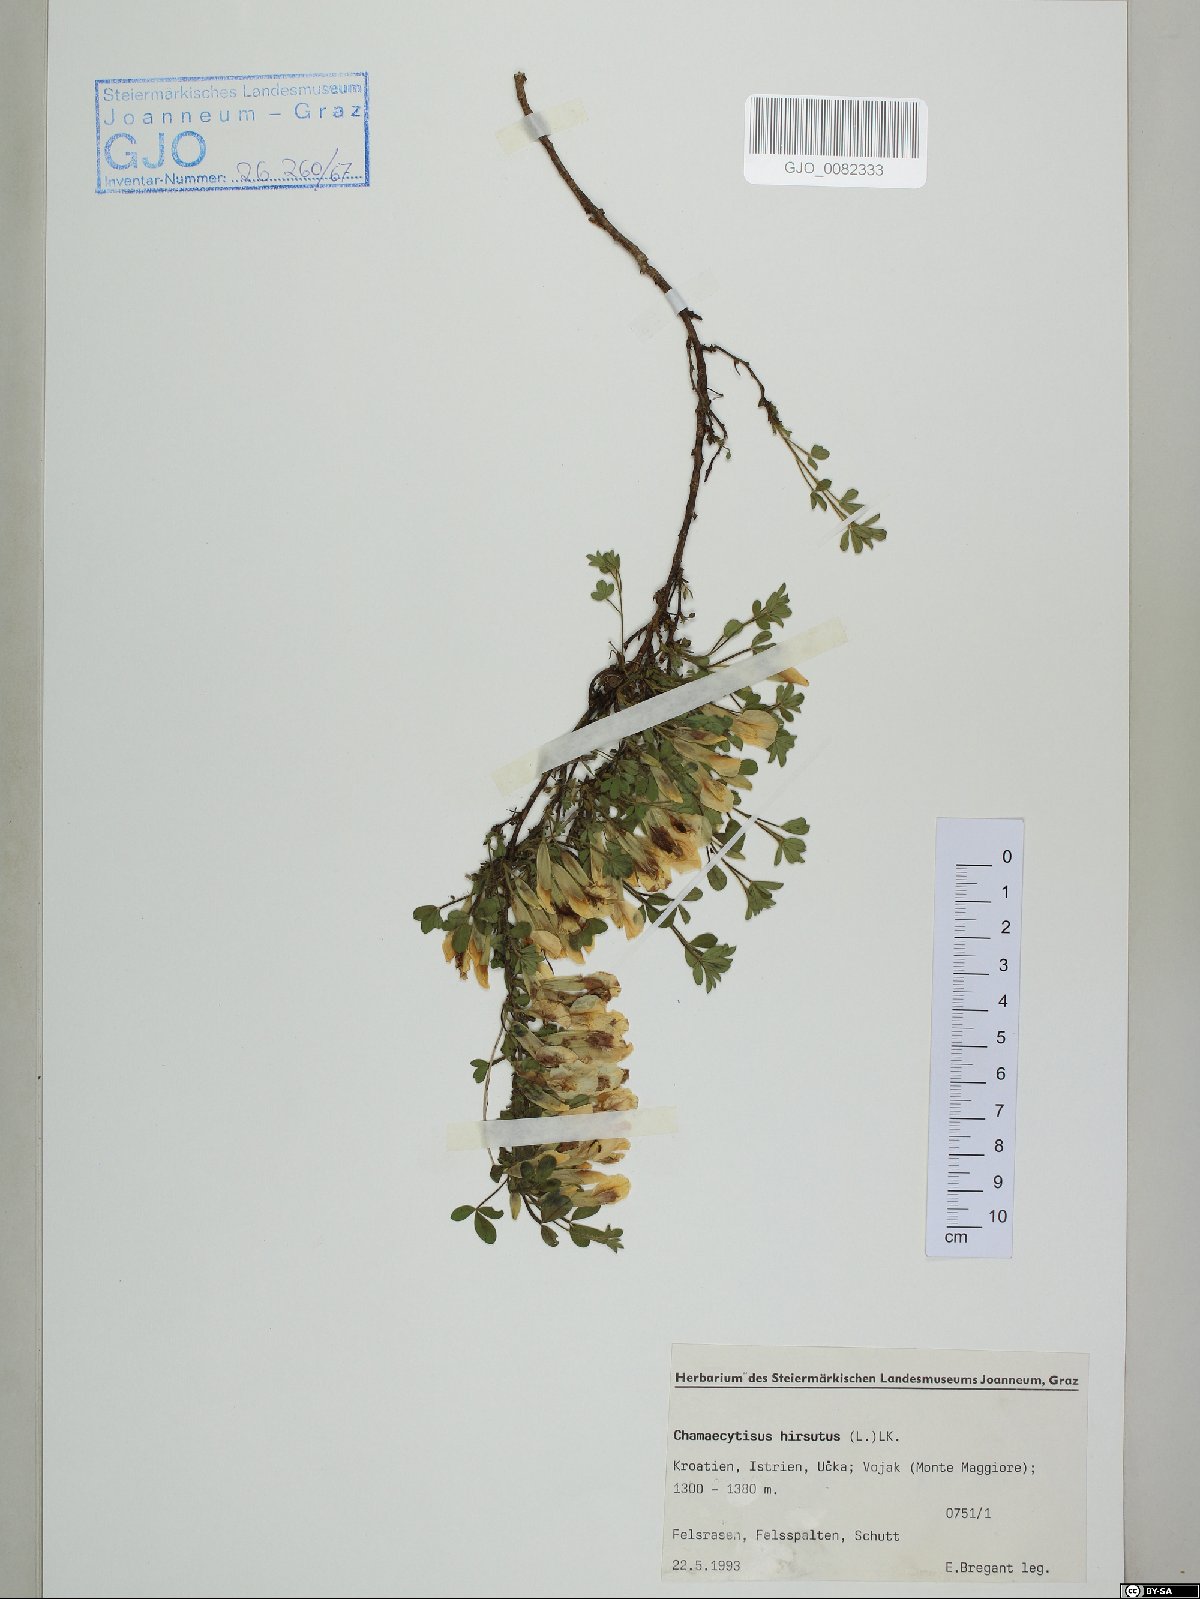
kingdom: Plantae
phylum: Tracheophyta
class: Magnoliopsida
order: Fabales
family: Fabaceae
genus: Chamaecytisus
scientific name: Chamaecytisus hirsutus
